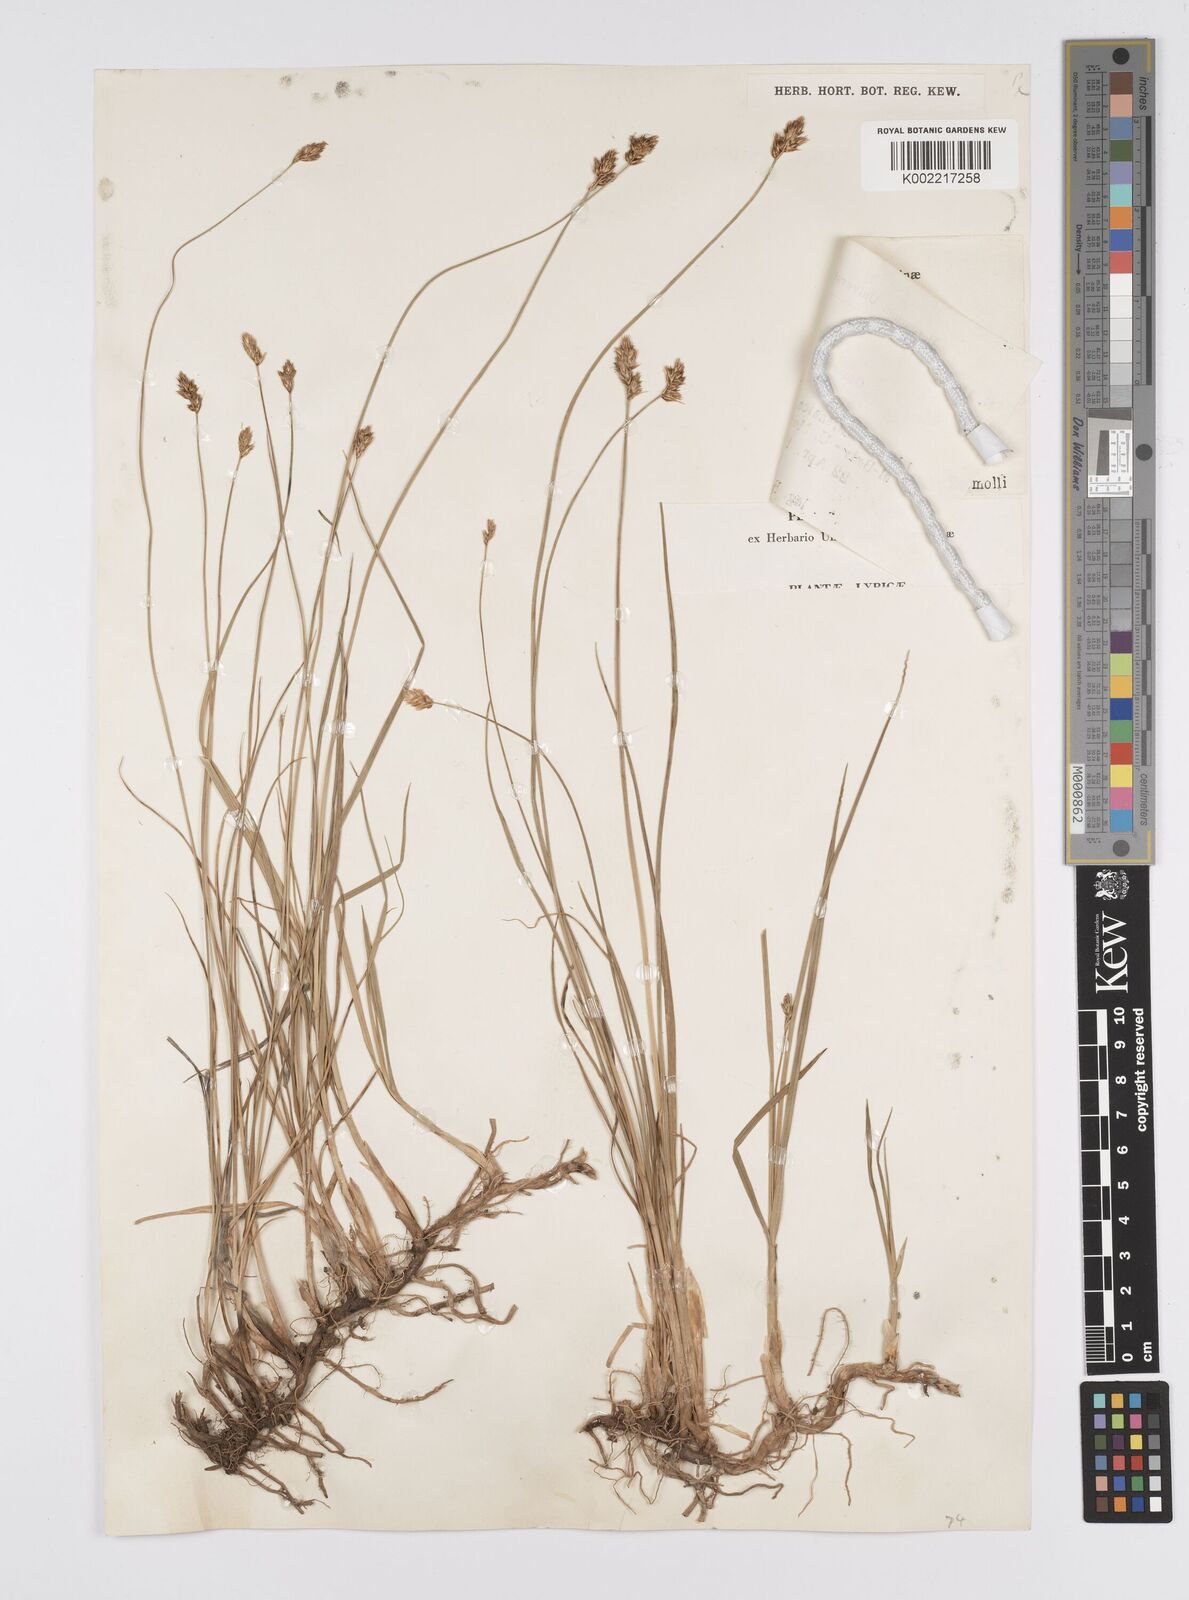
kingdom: Plantae
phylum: Tracheophyta
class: Liliopsida
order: Poales
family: Cyperaceae
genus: Carex
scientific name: Carex divisa
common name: Divided sedge
